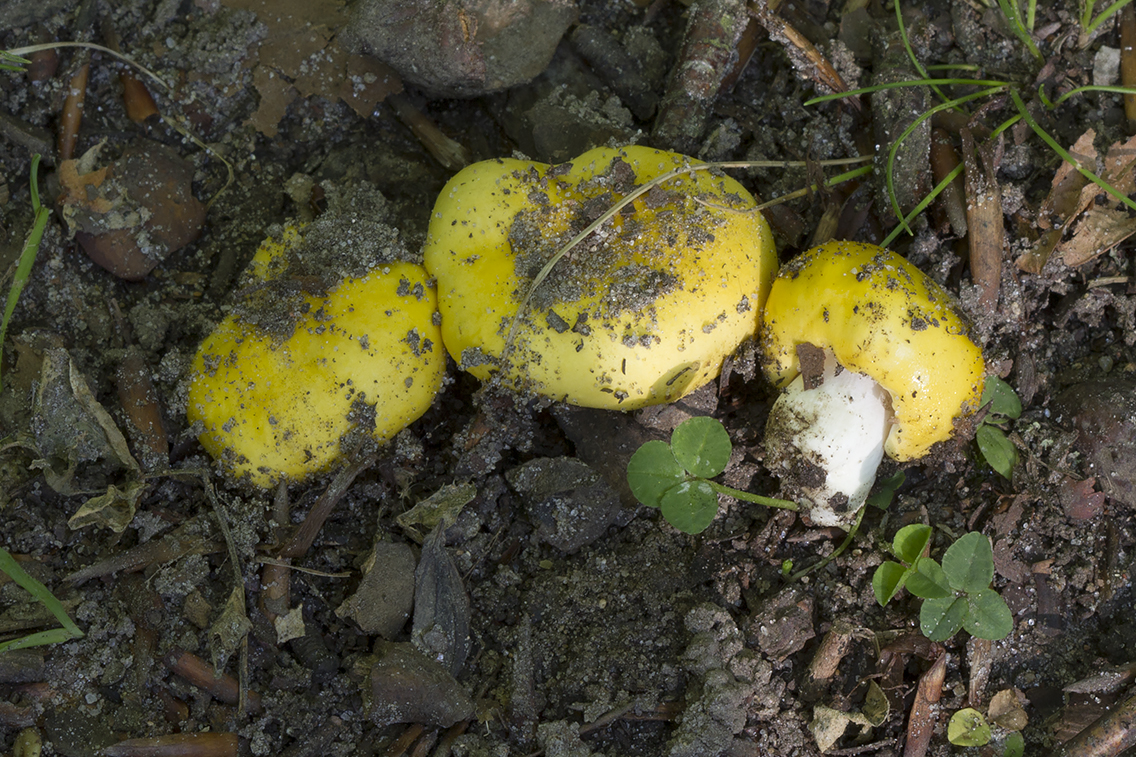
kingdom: Fungi
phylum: Basidiomycota
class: Agaricomycetes
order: Russulales
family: Russulaceae
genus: Russula
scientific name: Russula risigallina
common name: abrikos-skørhat
